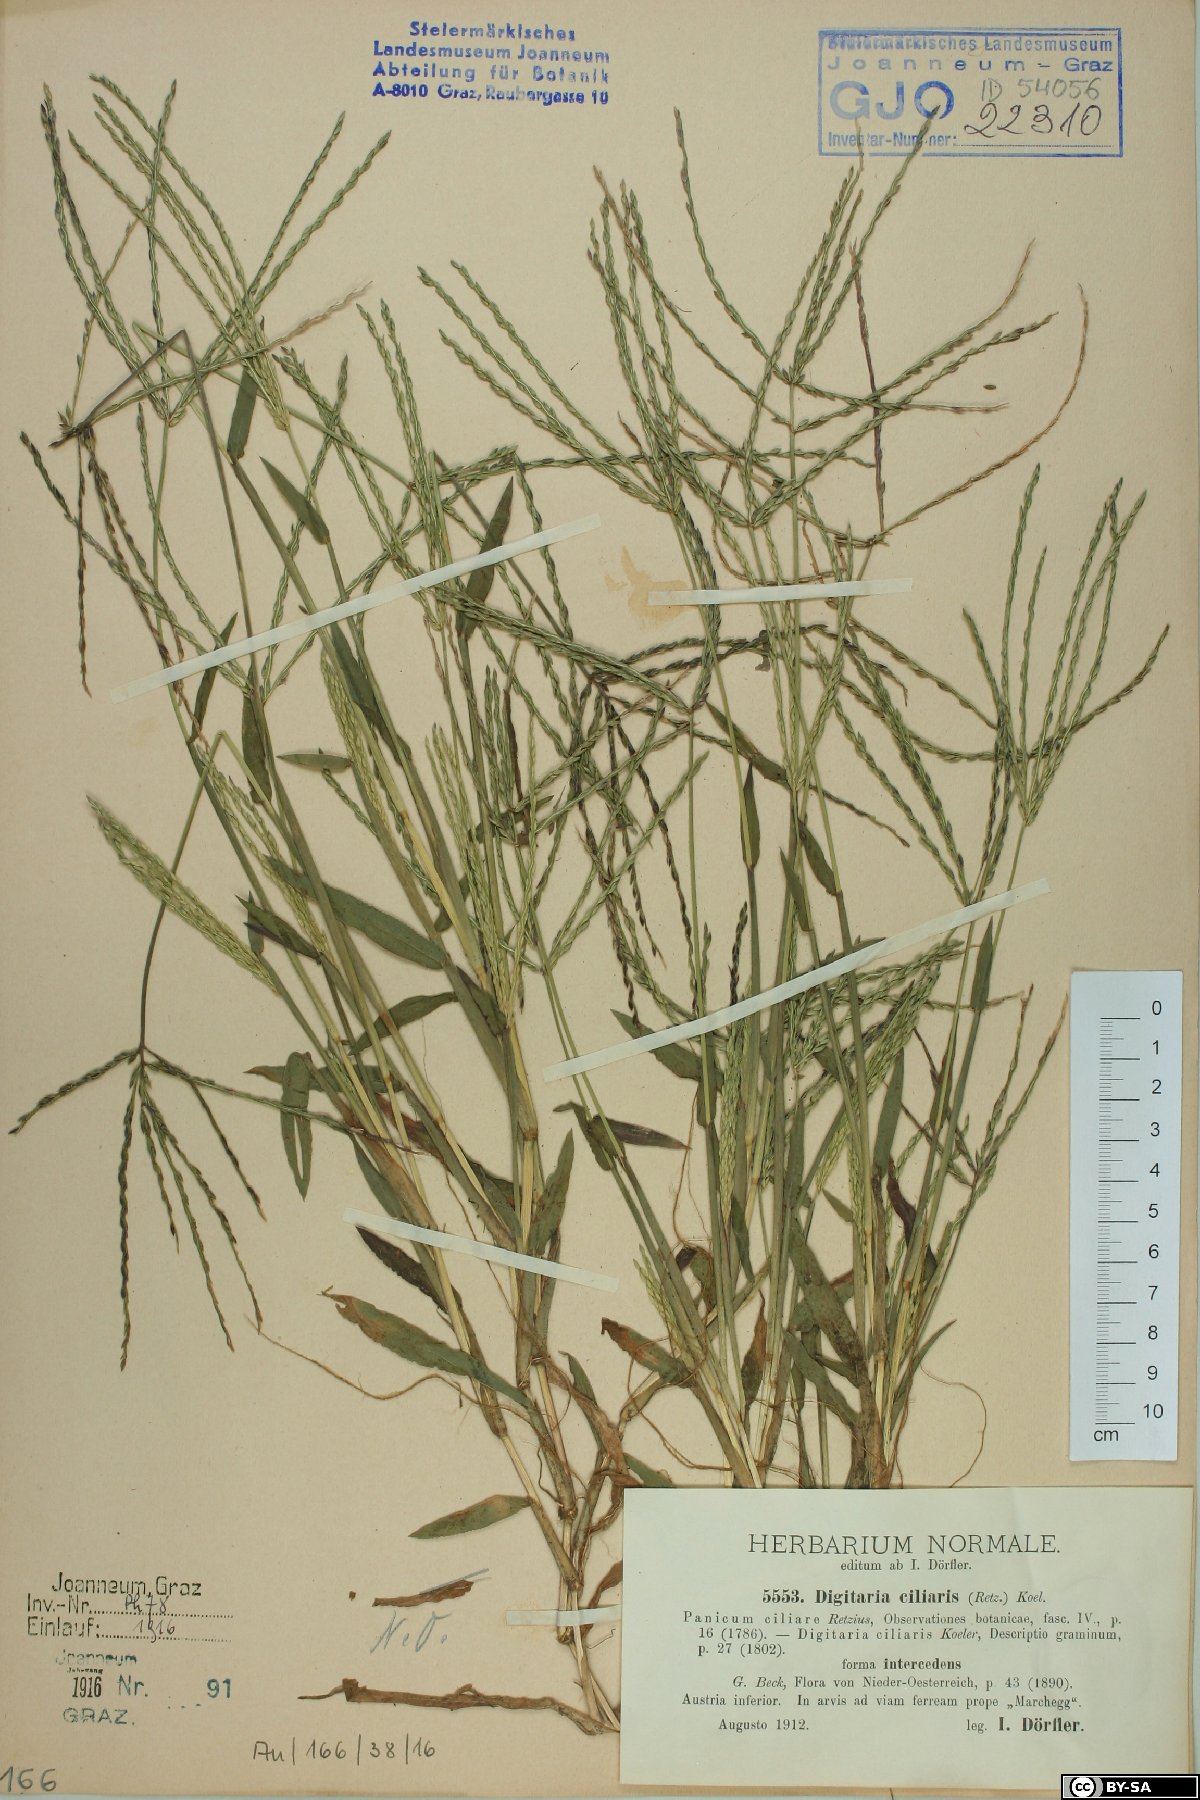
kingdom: Plantae
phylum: Tracheophyta
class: Liliopsida
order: Poales
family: Poaceae
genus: Digitaria
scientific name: Digitaria sanguinalis
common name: Hairy crabgrass
